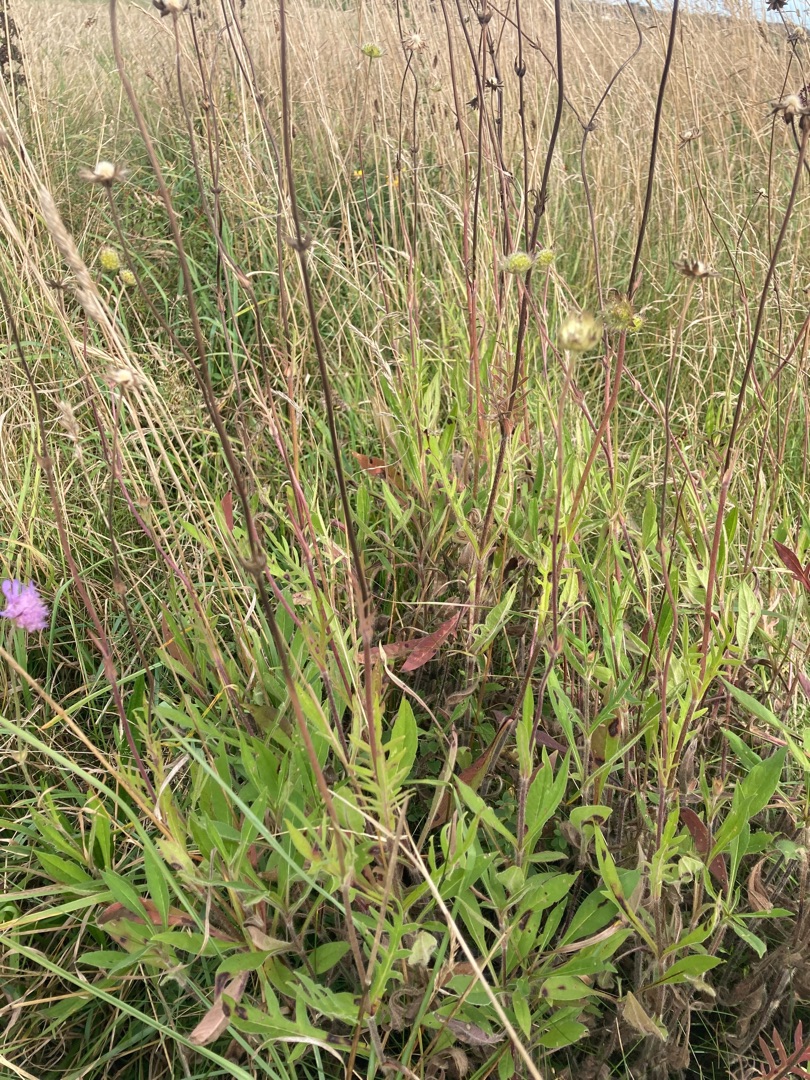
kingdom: Plantae
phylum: Tracheophyta
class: Magnoliopsida
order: Dipsacales
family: Caprifoliaceae
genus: Knautia
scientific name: Knautia arvensis
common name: Blåhat
